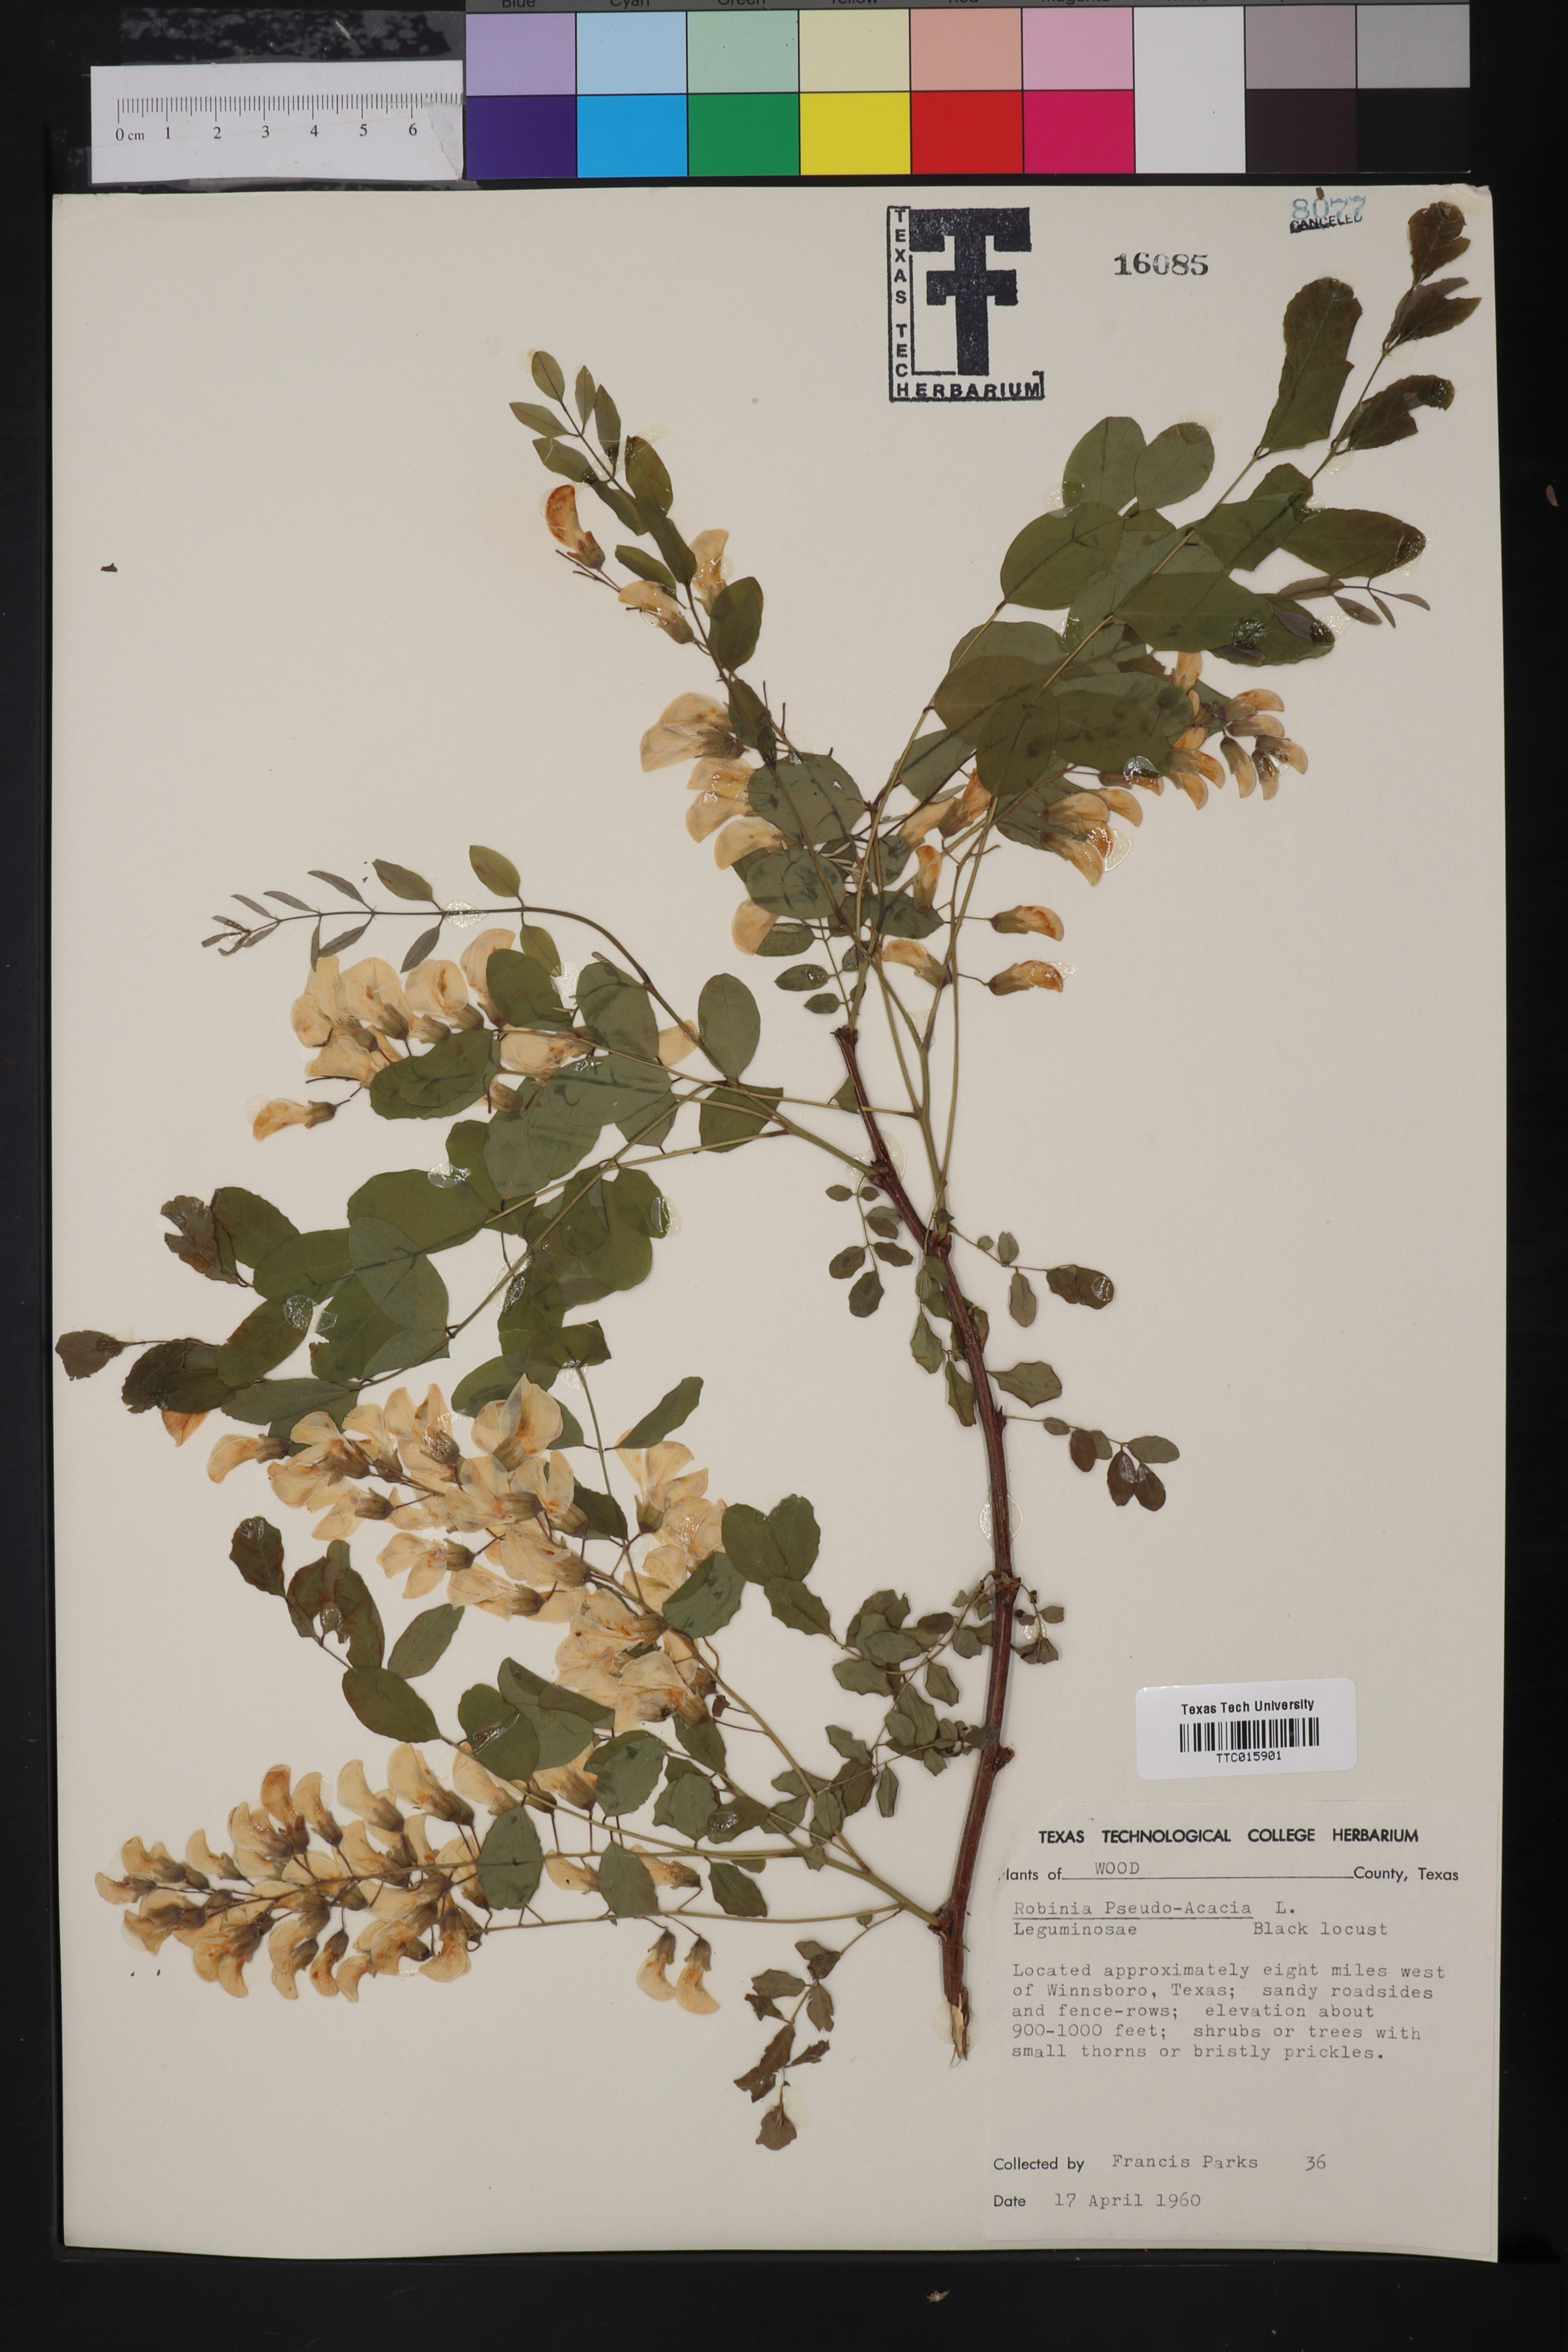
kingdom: Plantae
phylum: Tracheophyta
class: Magnoliopsida
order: Fabales
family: Fabaceae
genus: Robinia
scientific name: Robinia pseudoacacia
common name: Black locust
